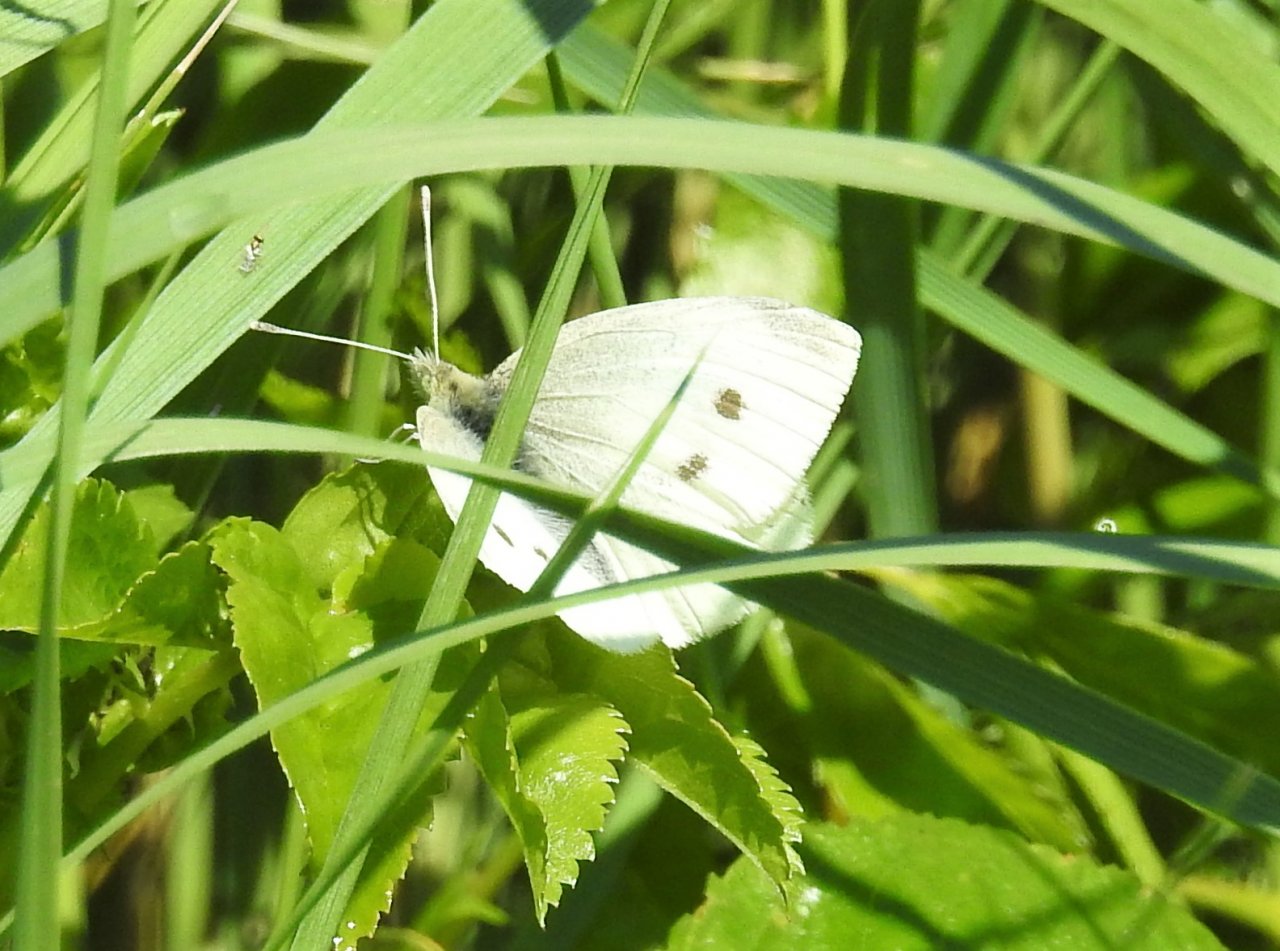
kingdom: Animalia
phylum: Arthropoda
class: Insecta
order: Lepidoptera
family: Pieridae
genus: Pieris
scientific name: Pieris rapae
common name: Cabbage White
